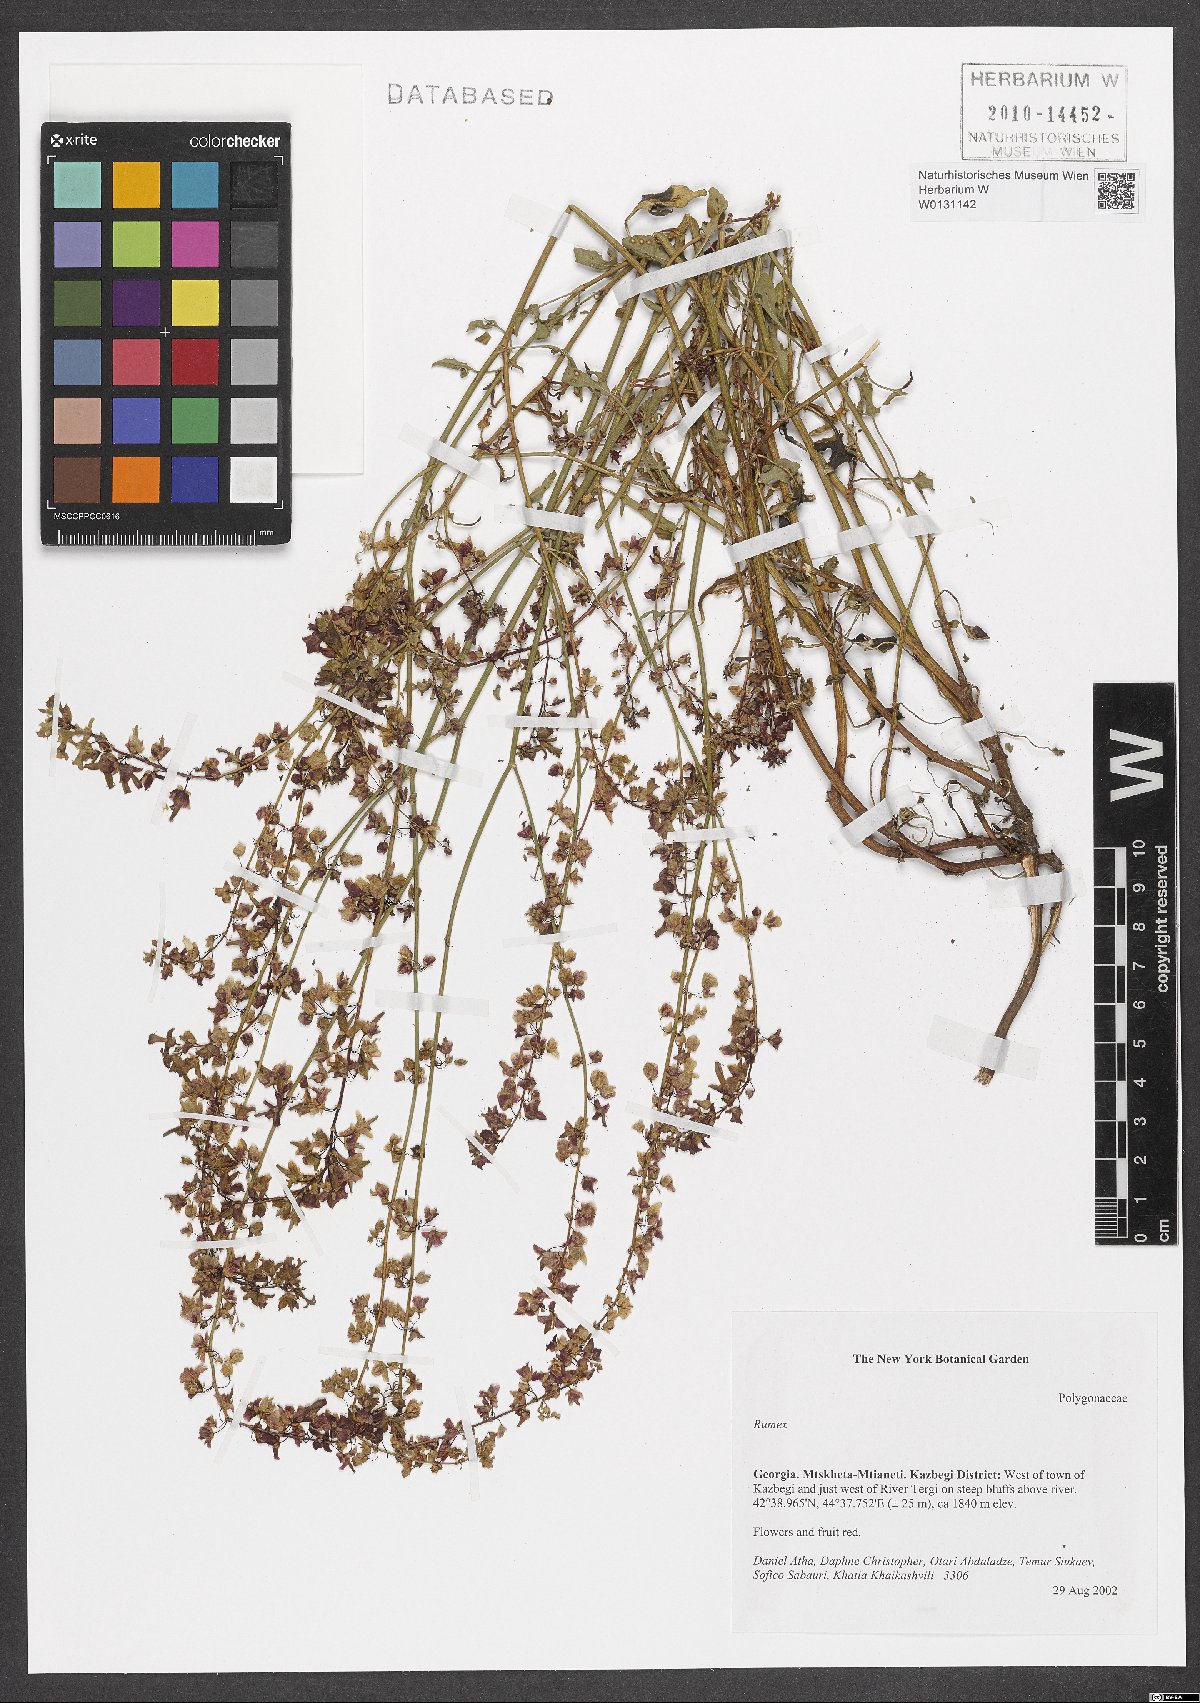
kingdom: Plantae
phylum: Tracheophyta
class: Magnoliopsida
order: Caryophyllales
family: Polygonaceae
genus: Rumex
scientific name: Rumex
